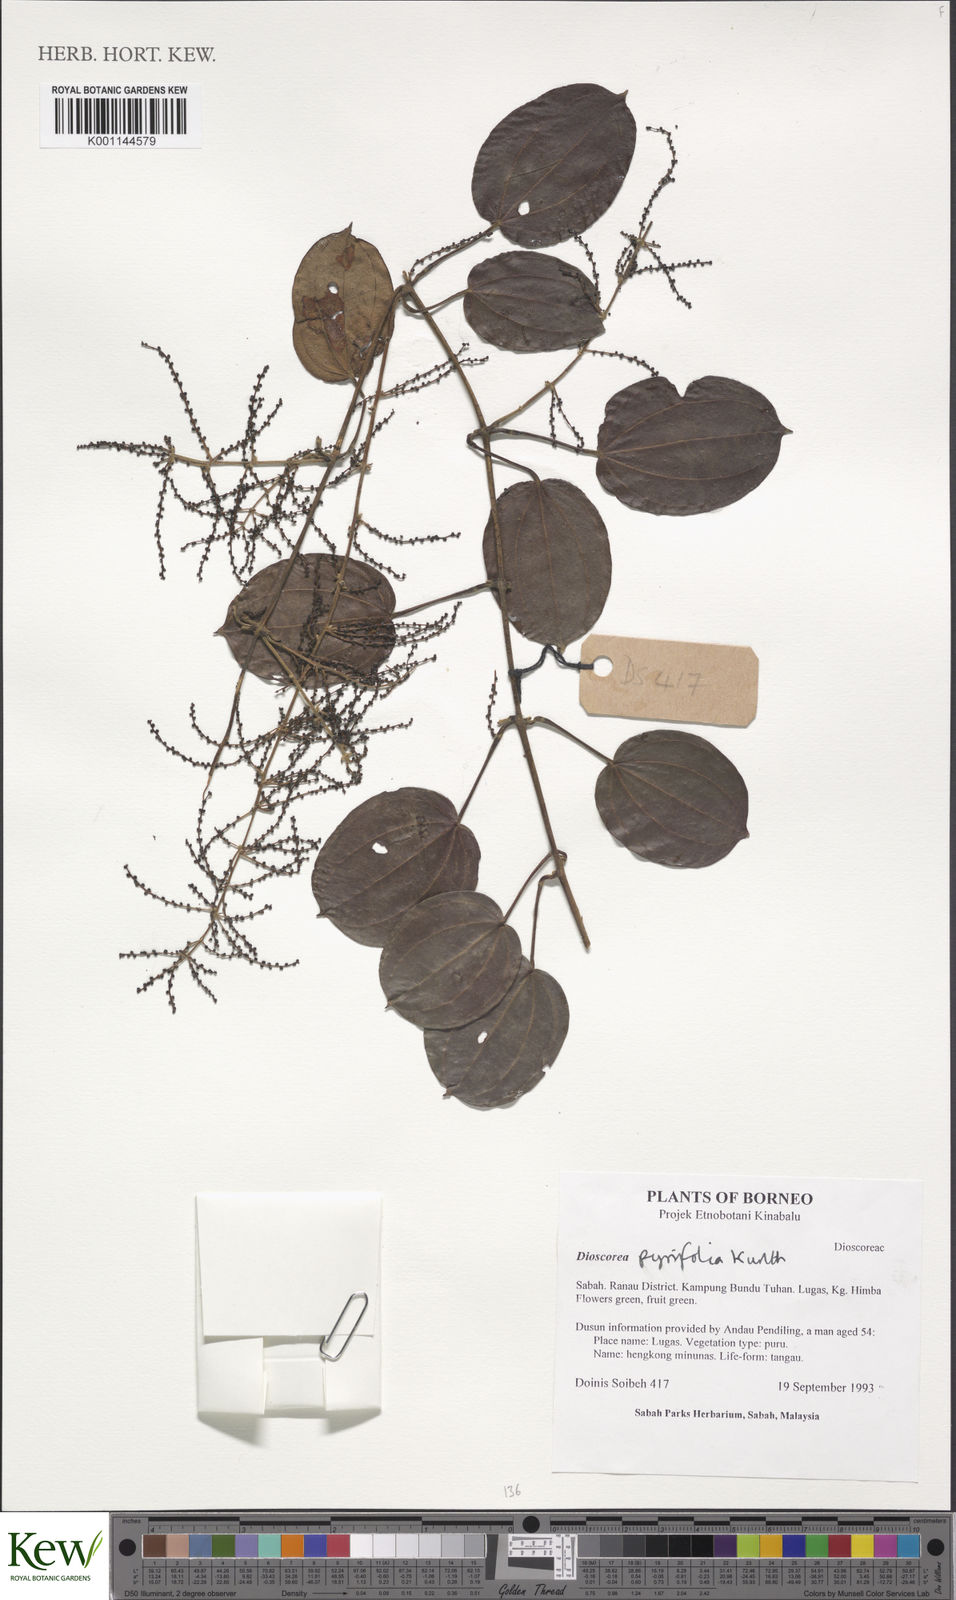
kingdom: Plantae
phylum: Tracheophyta
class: Liliopsida
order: Dioscoreales
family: Dioscoreaceae
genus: Dioscorea
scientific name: Dioscorea pyrifolia
